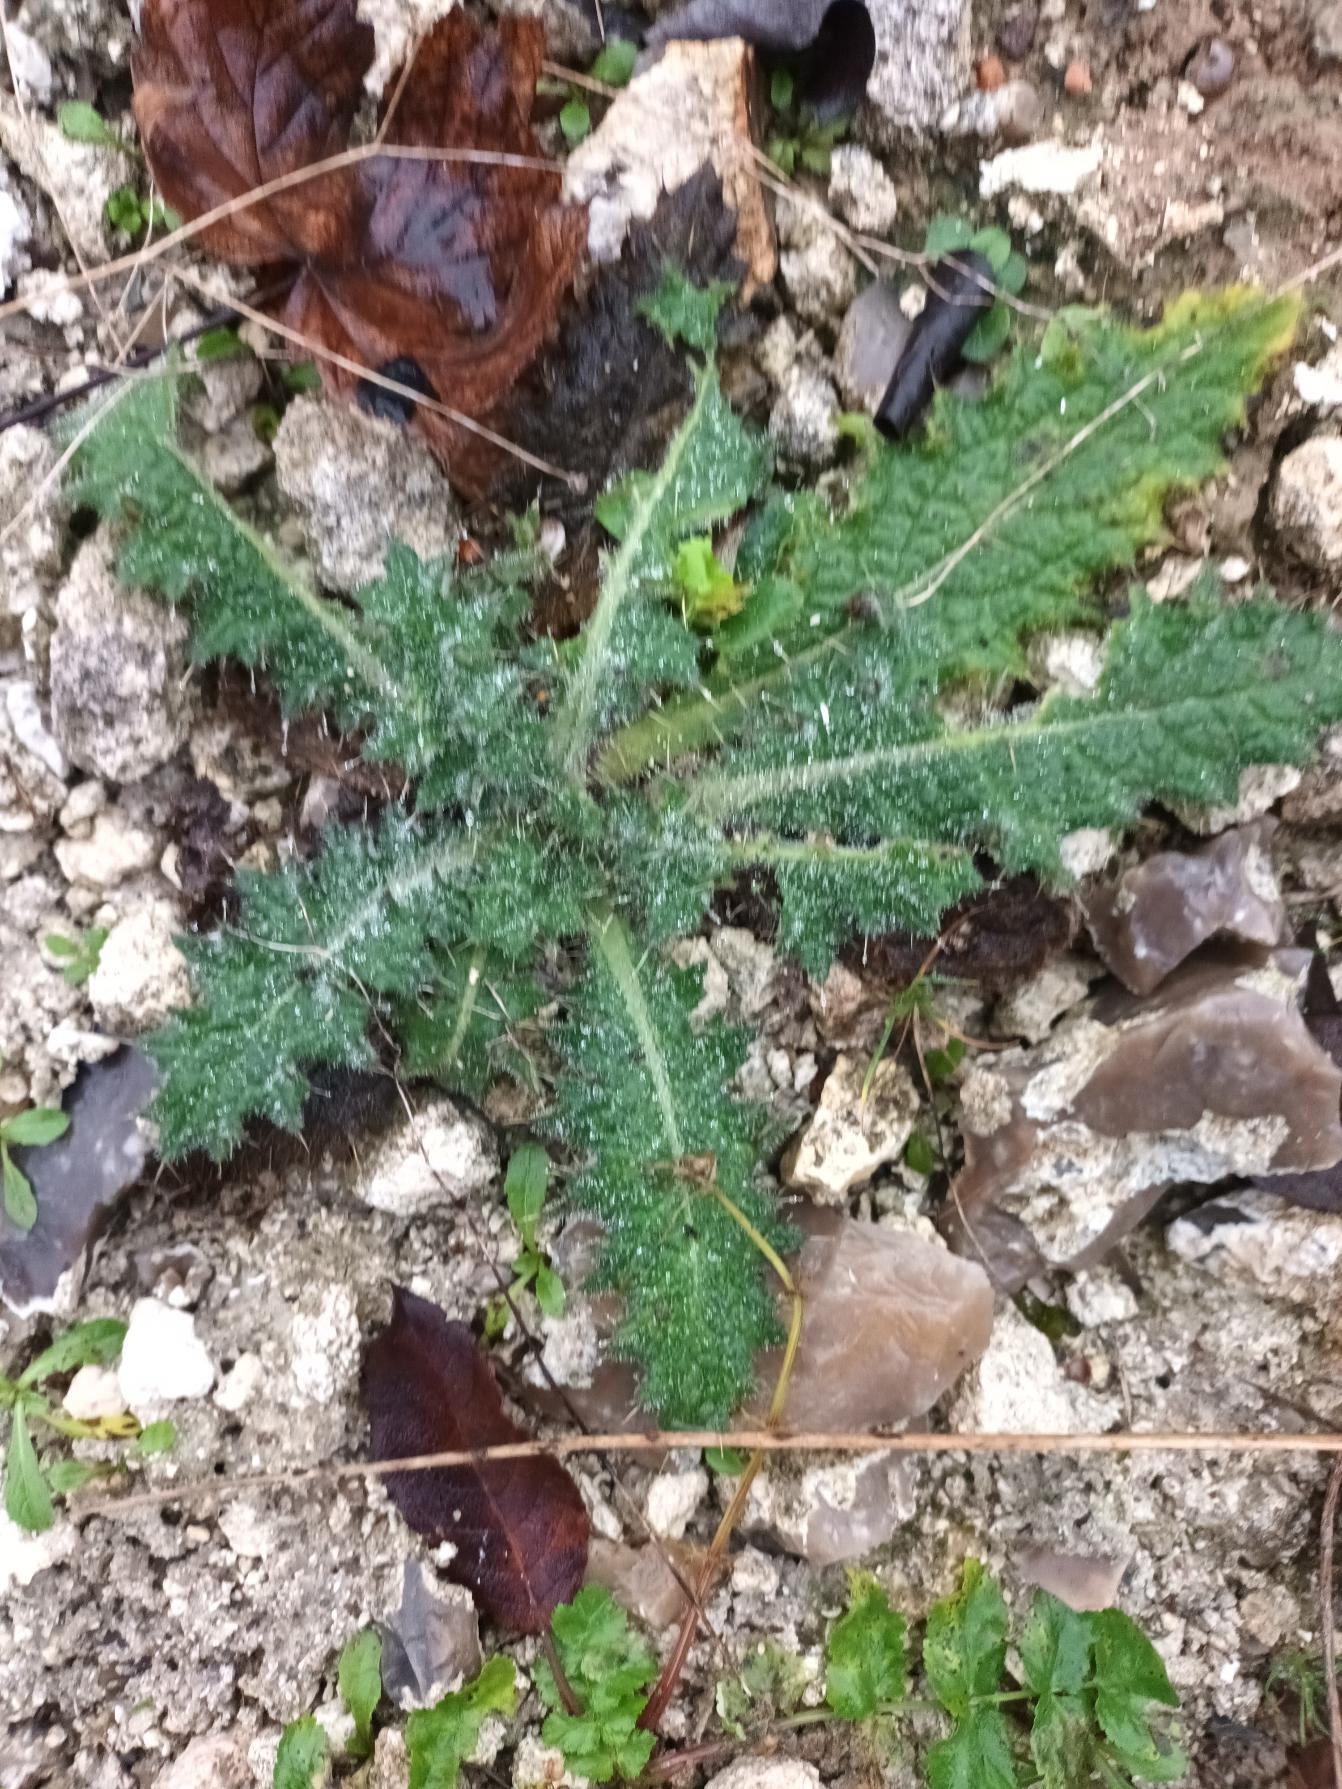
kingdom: Plantae
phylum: Tracheophyta
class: Magnoliopsida
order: Asterales
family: Asteraceae
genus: Cirsium
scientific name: Cirsium vulgare
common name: Horse-tidsel
